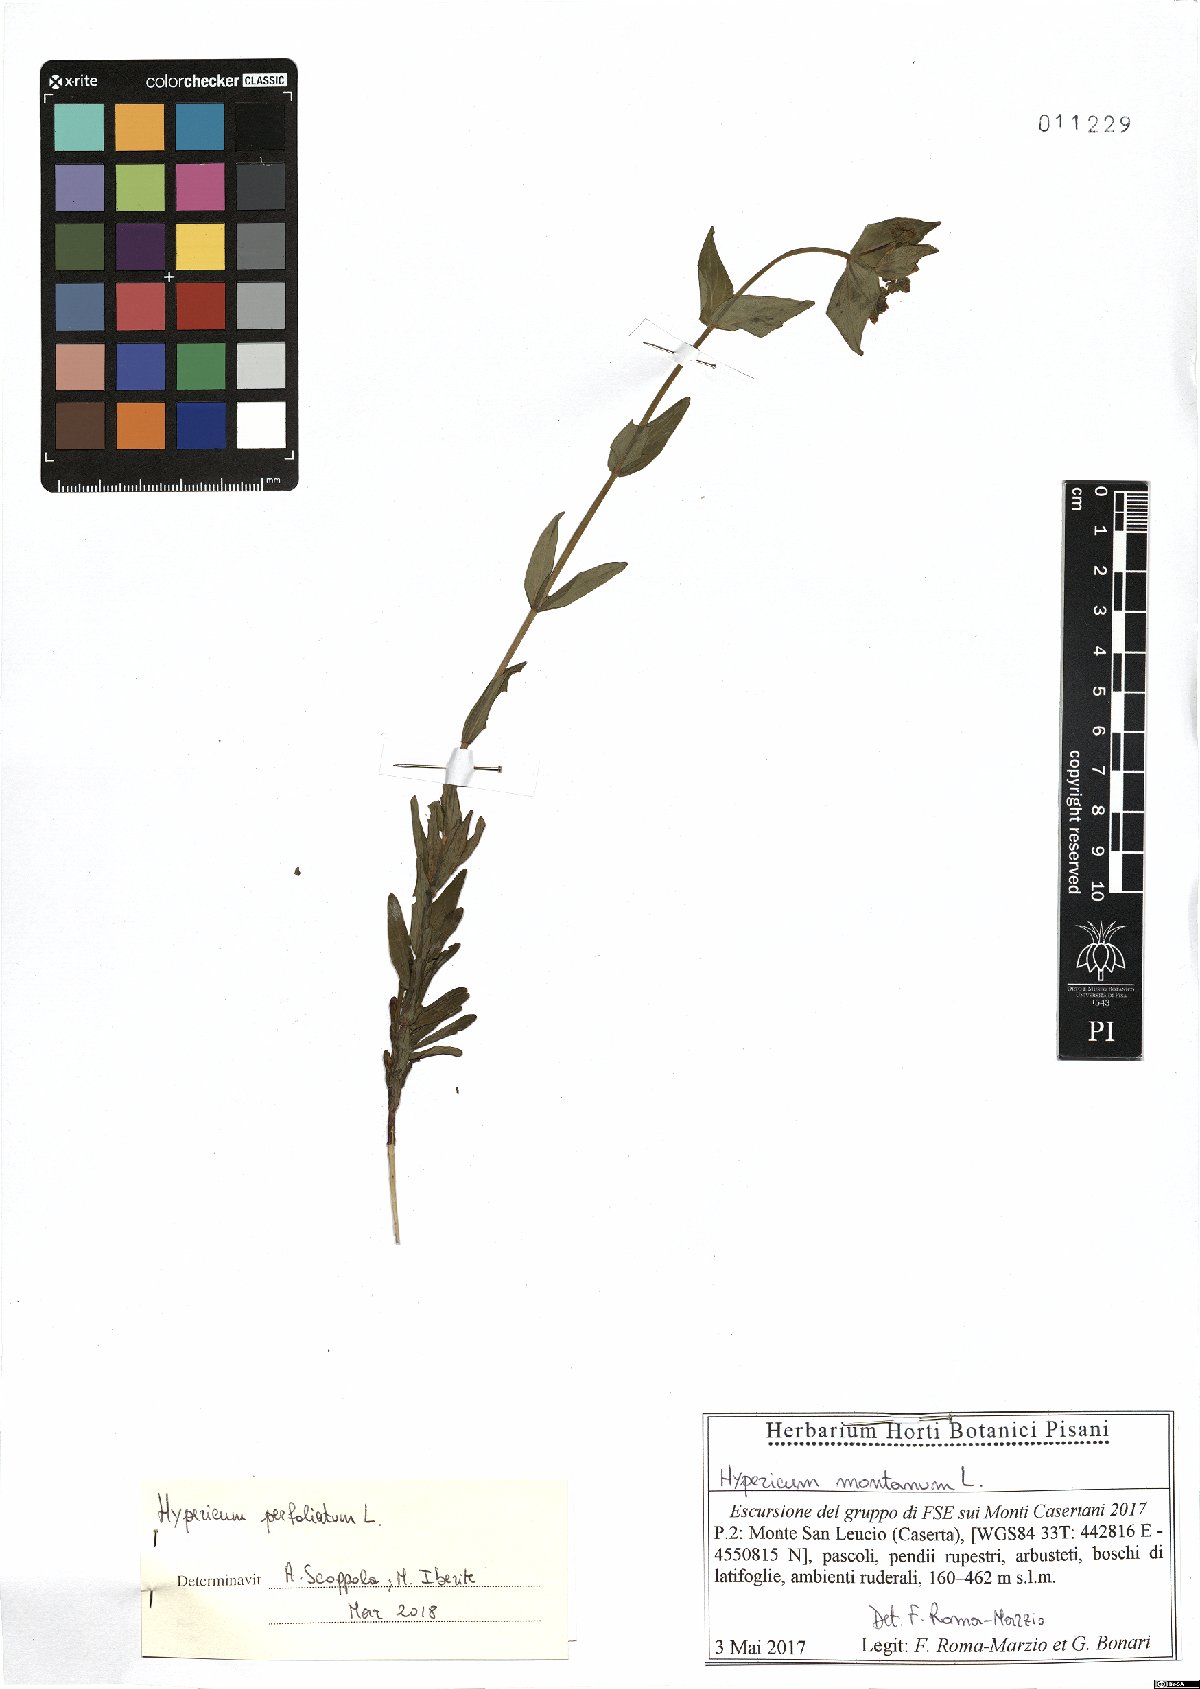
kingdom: Plantae
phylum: Tracheophyta
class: Magnoliopsida
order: Malpighiales
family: Hypericaceae
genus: Hypericum
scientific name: Hypericum perfoliatum
